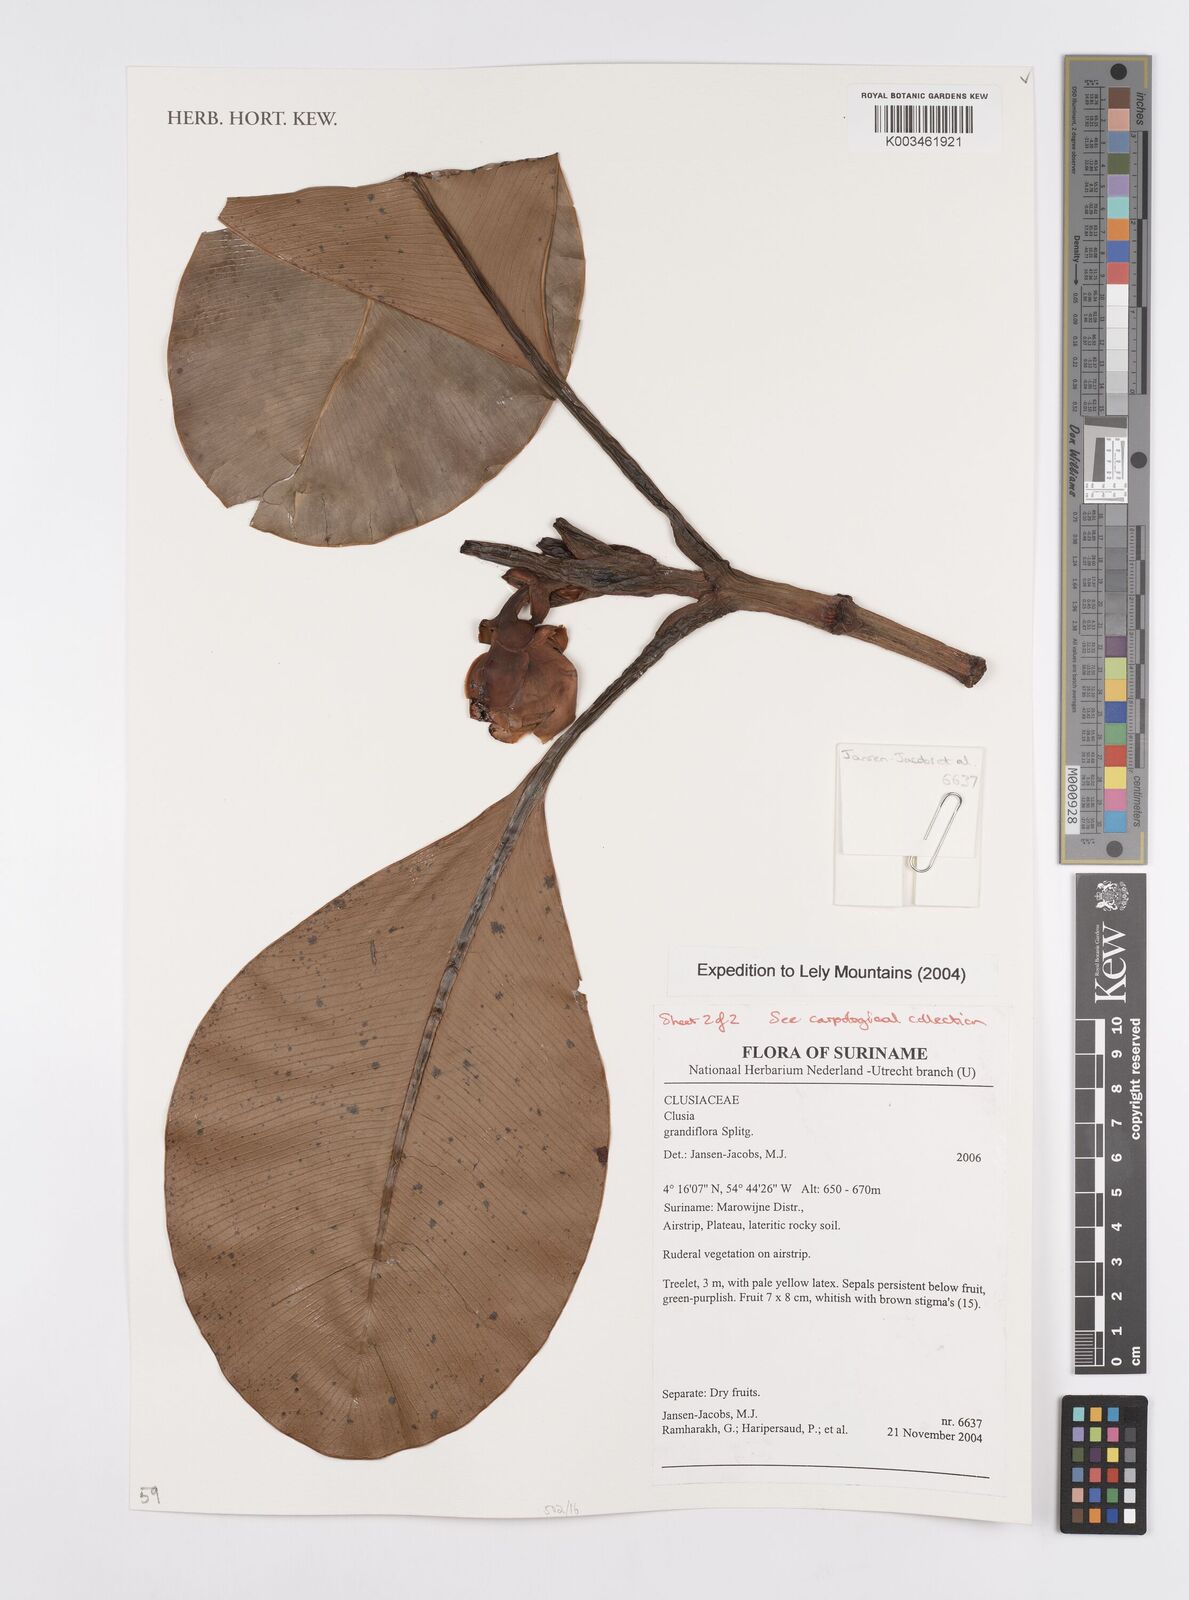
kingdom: Plantae
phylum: Tracheophyta
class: Magnoliopsida
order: Malpighiales
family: Clusiaceae
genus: Clusia
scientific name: Clusia grandiflora
